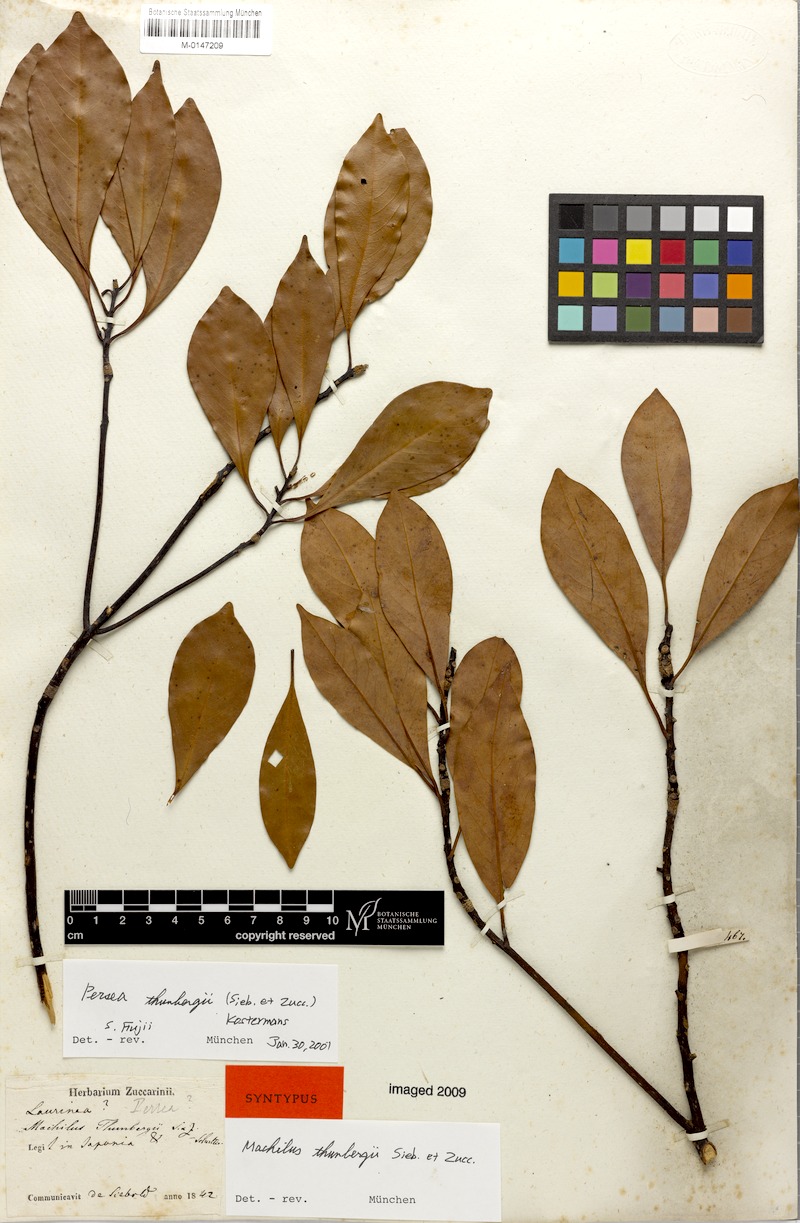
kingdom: Plantae
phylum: Tracheophyta
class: Magnoliopsida
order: Laurales
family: Lauraceae
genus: Machilus
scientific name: Machilus thunbergii
